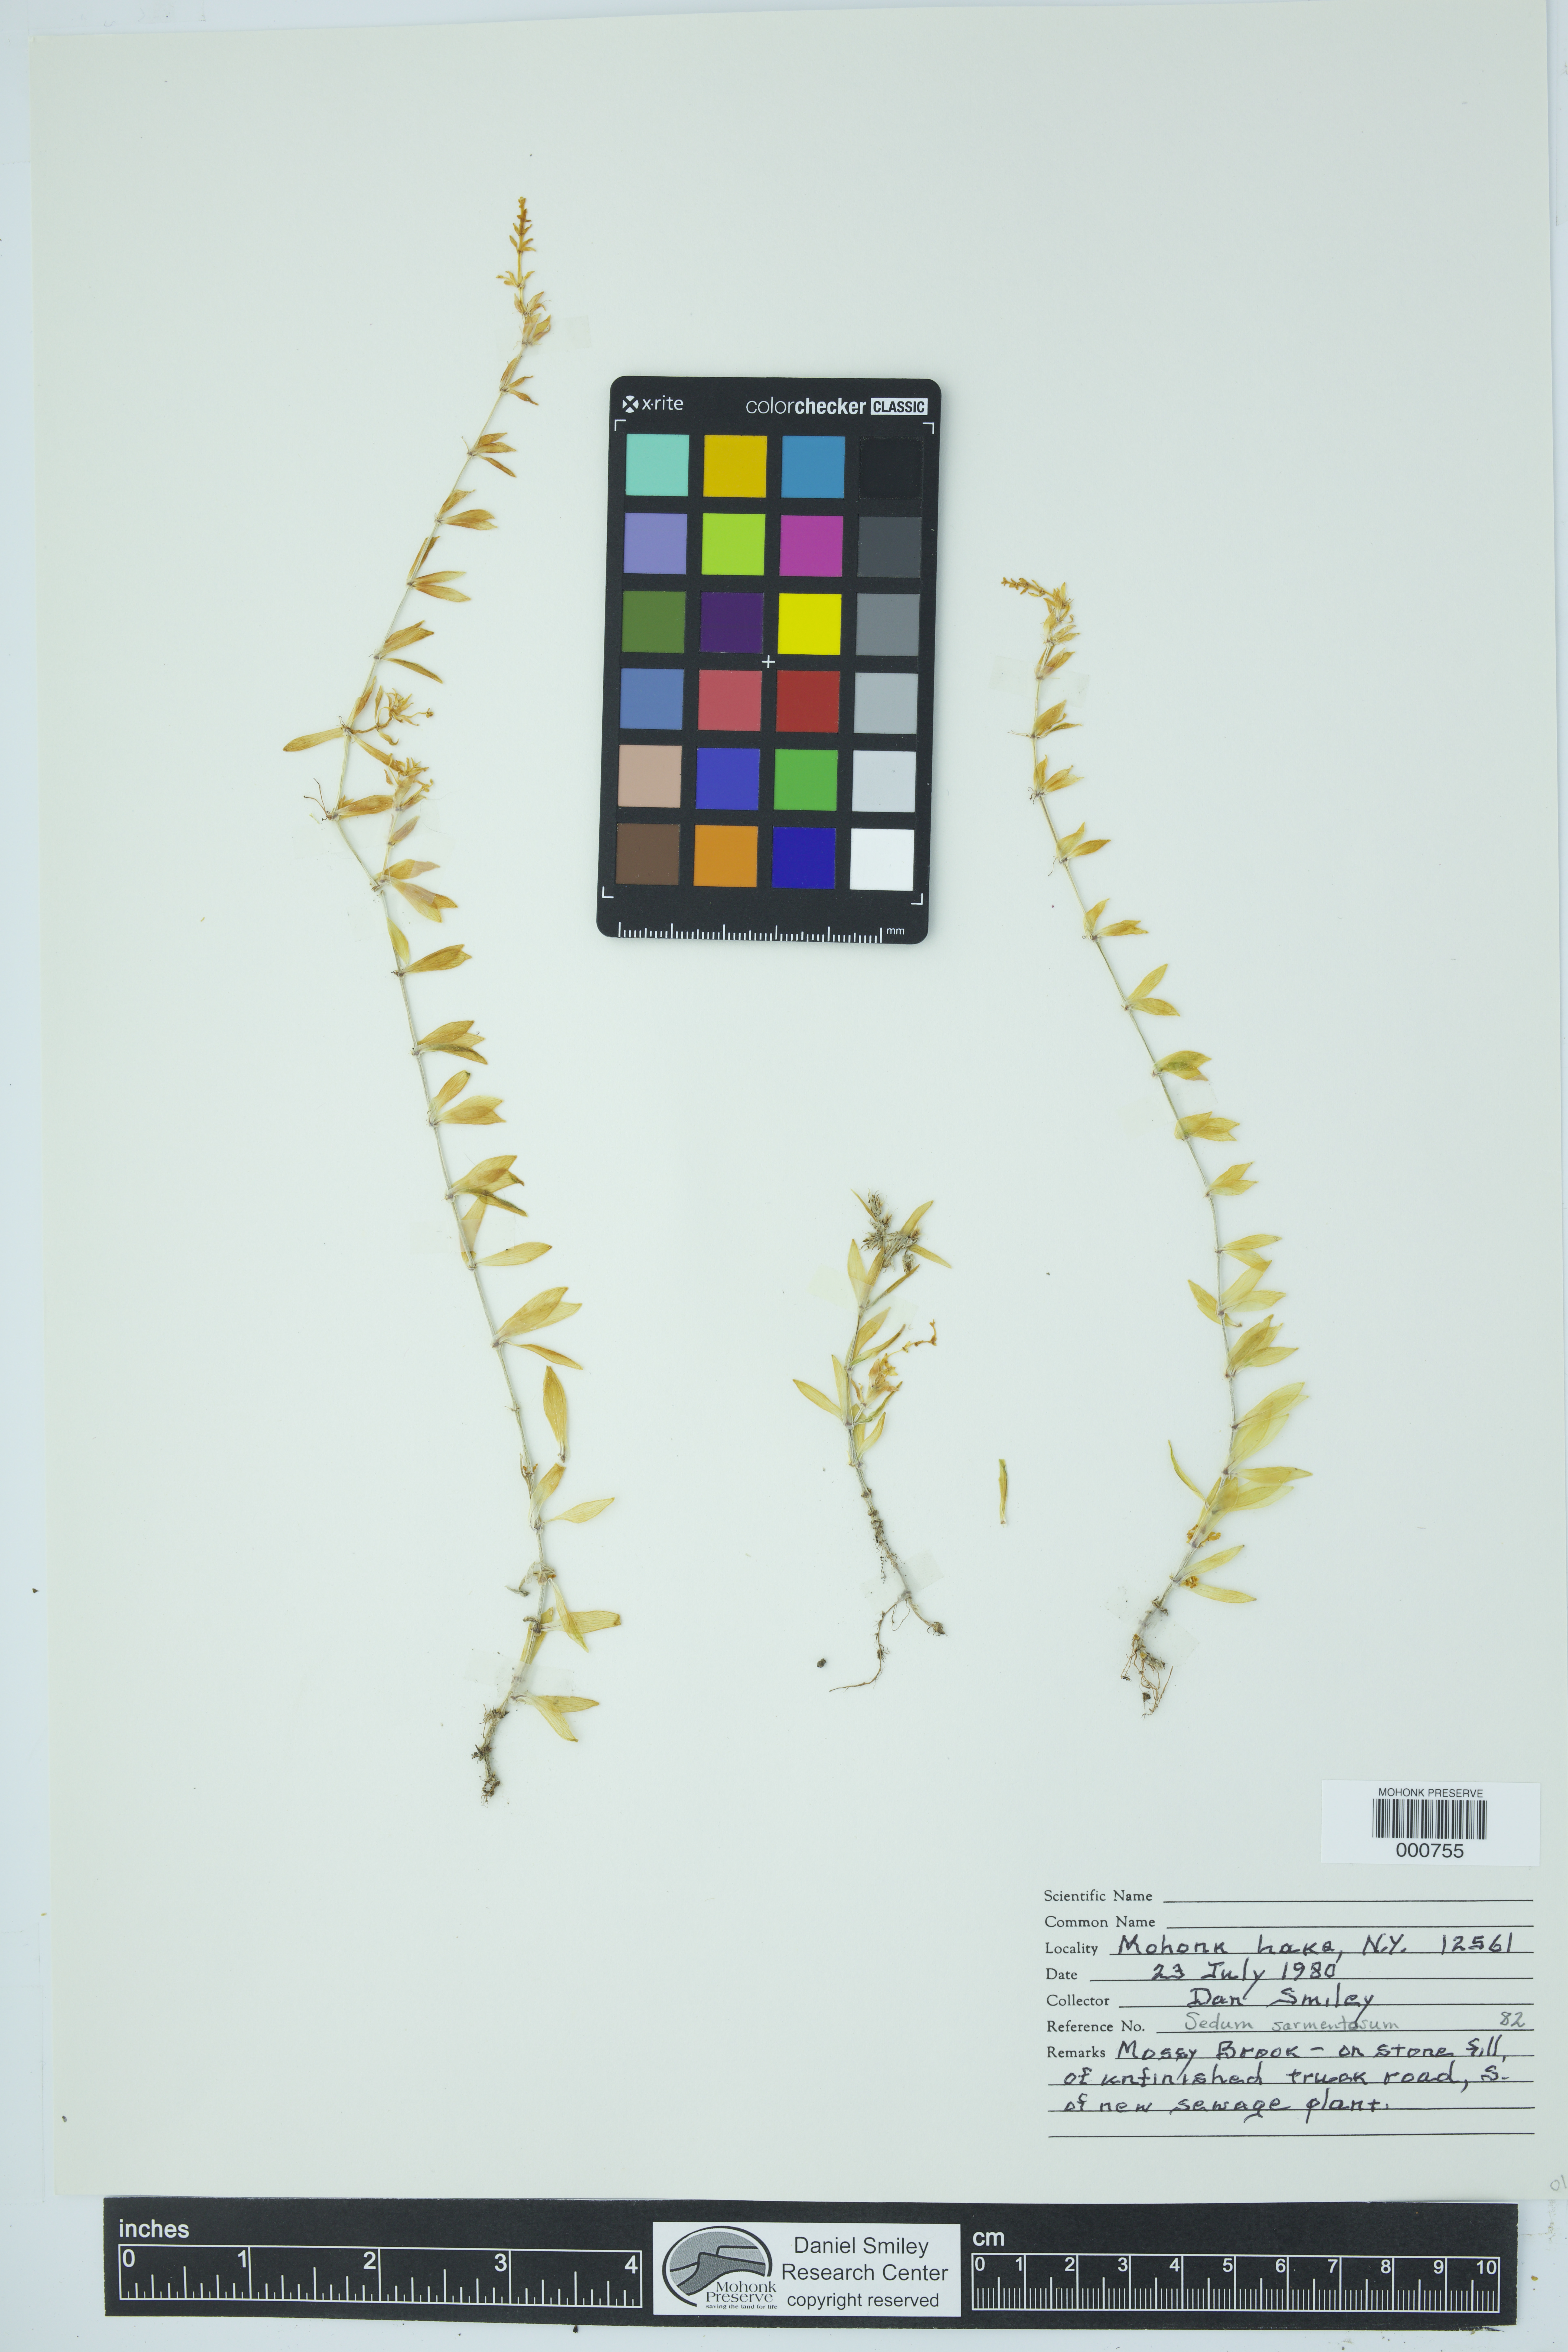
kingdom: Plantae
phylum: Tracheophyta
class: Magnoliopsida
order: Saxifragales
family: Crassulaceae
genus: Sedum
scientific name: Sedum sarmentosum
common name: Stringy stonecrop
